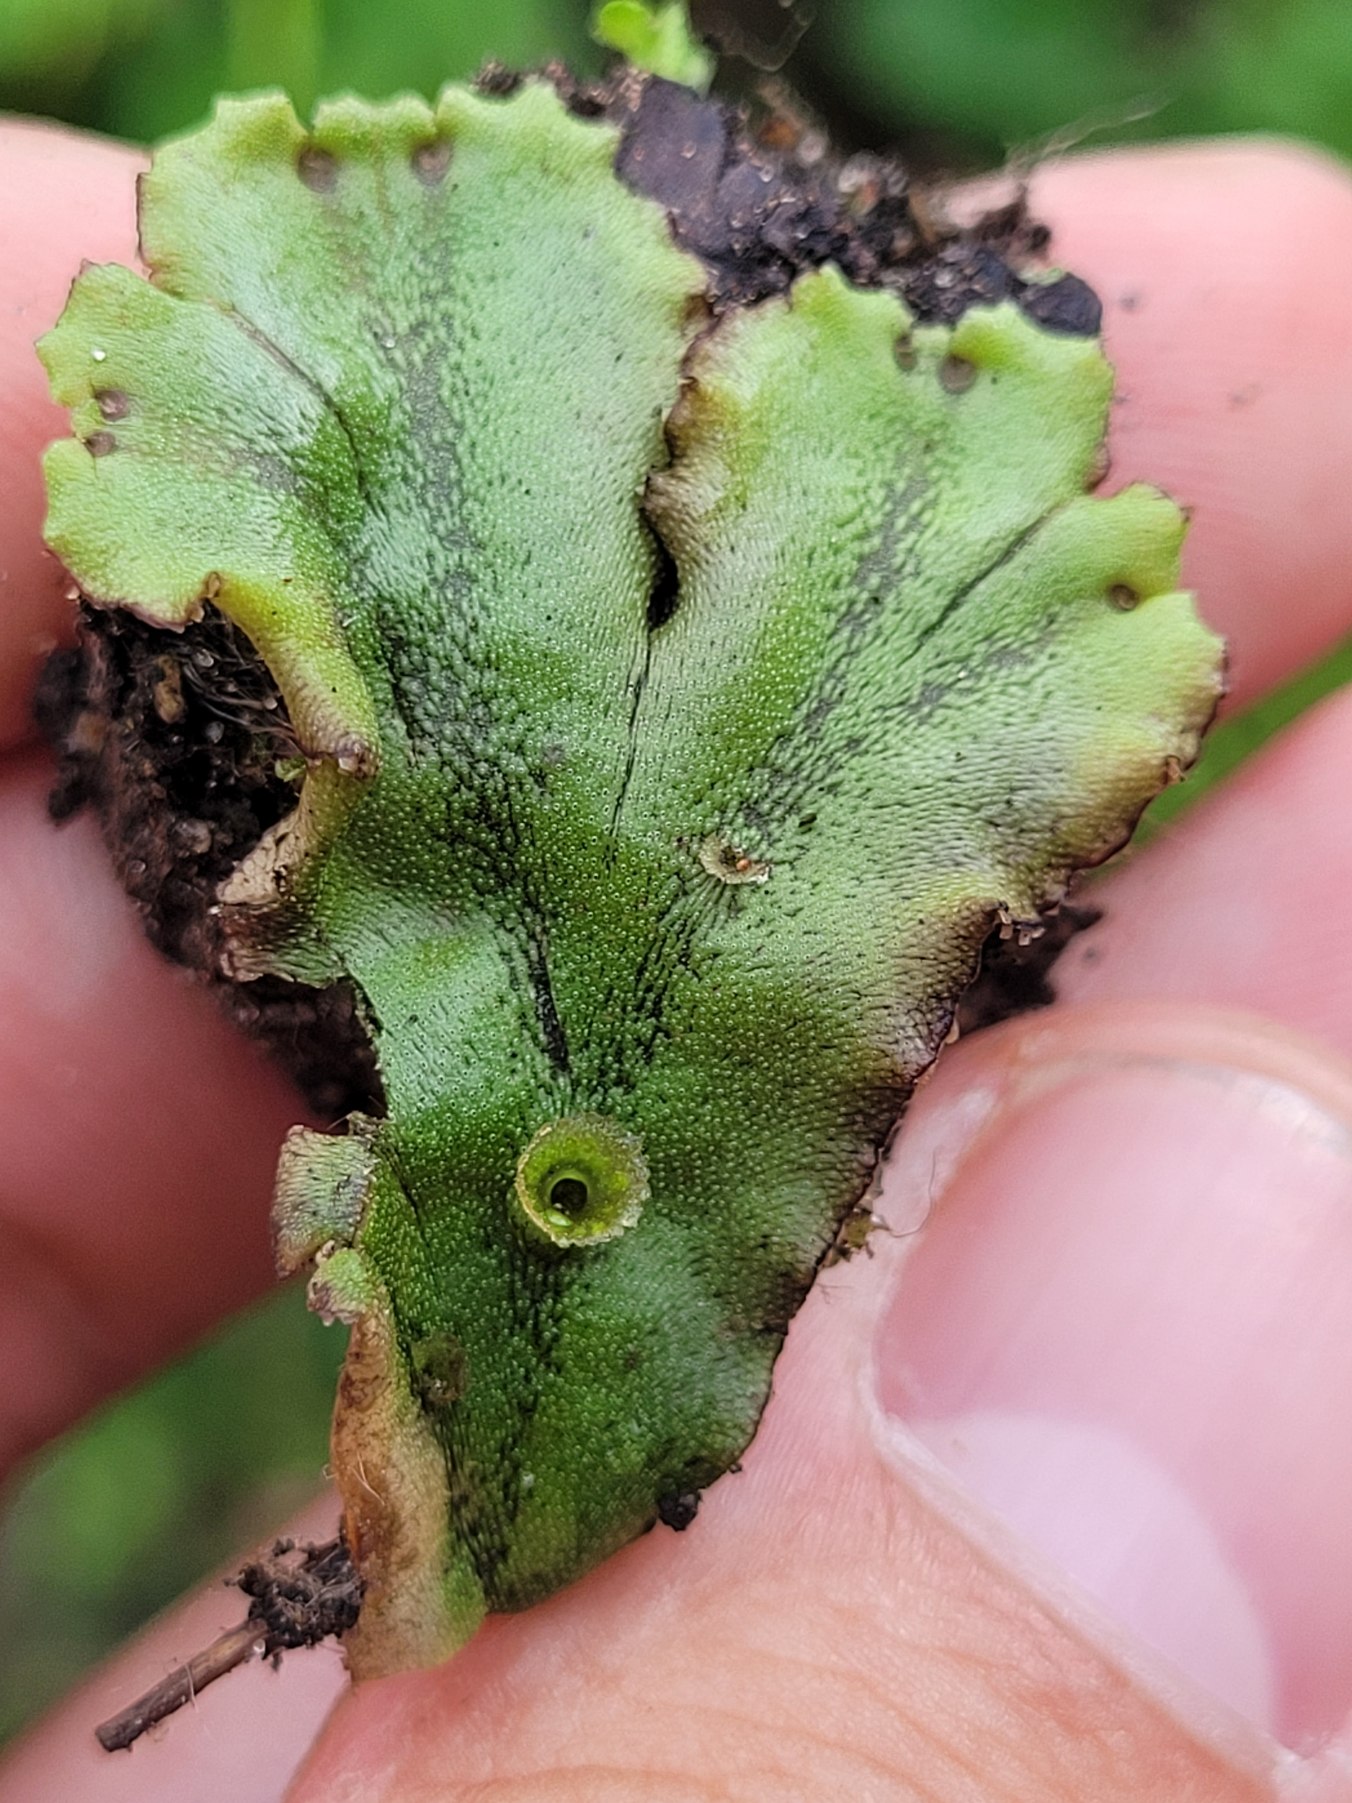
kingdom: Plantae
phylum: Marchantiophyta
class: Marchantiopsida
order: Marchantiales
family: Marchantiaceae
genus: Marchantia
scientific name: Marchantia polymorpha
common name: Almindelig lungemos (underart)
